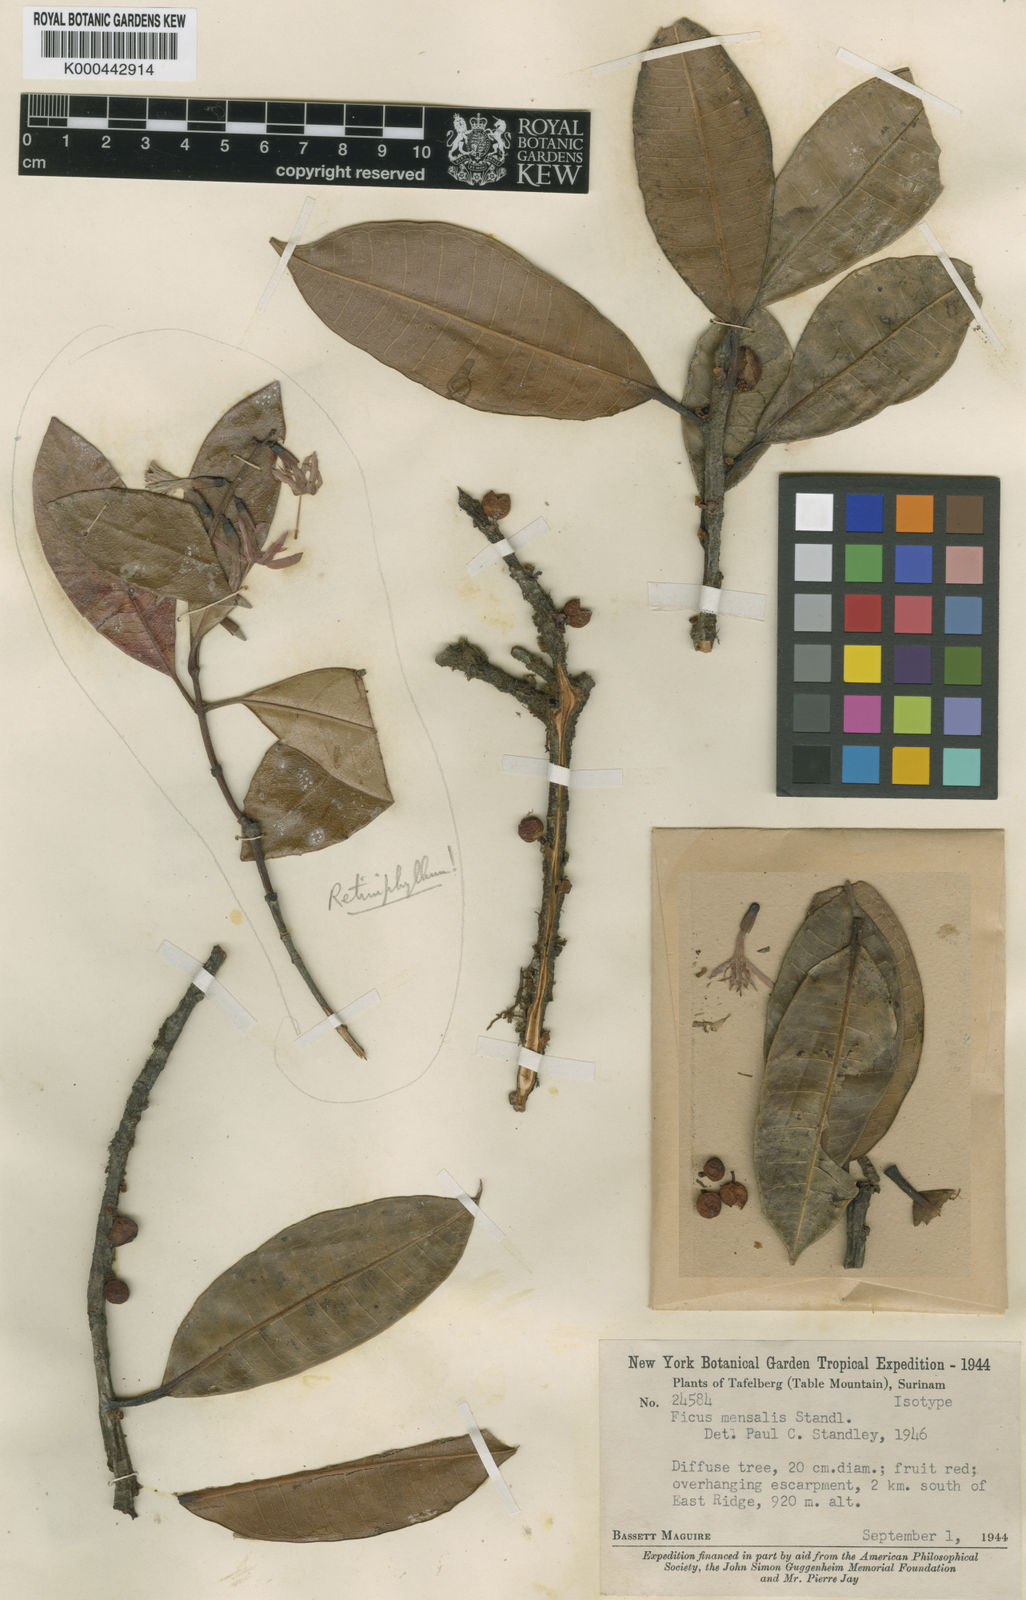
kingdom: Plantae
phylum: Tracheophyta
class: Magnoliopsida
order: Rosales
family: Moraceae
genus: Ficus
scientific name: Ficus americana
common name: Jamaican cherry fig
